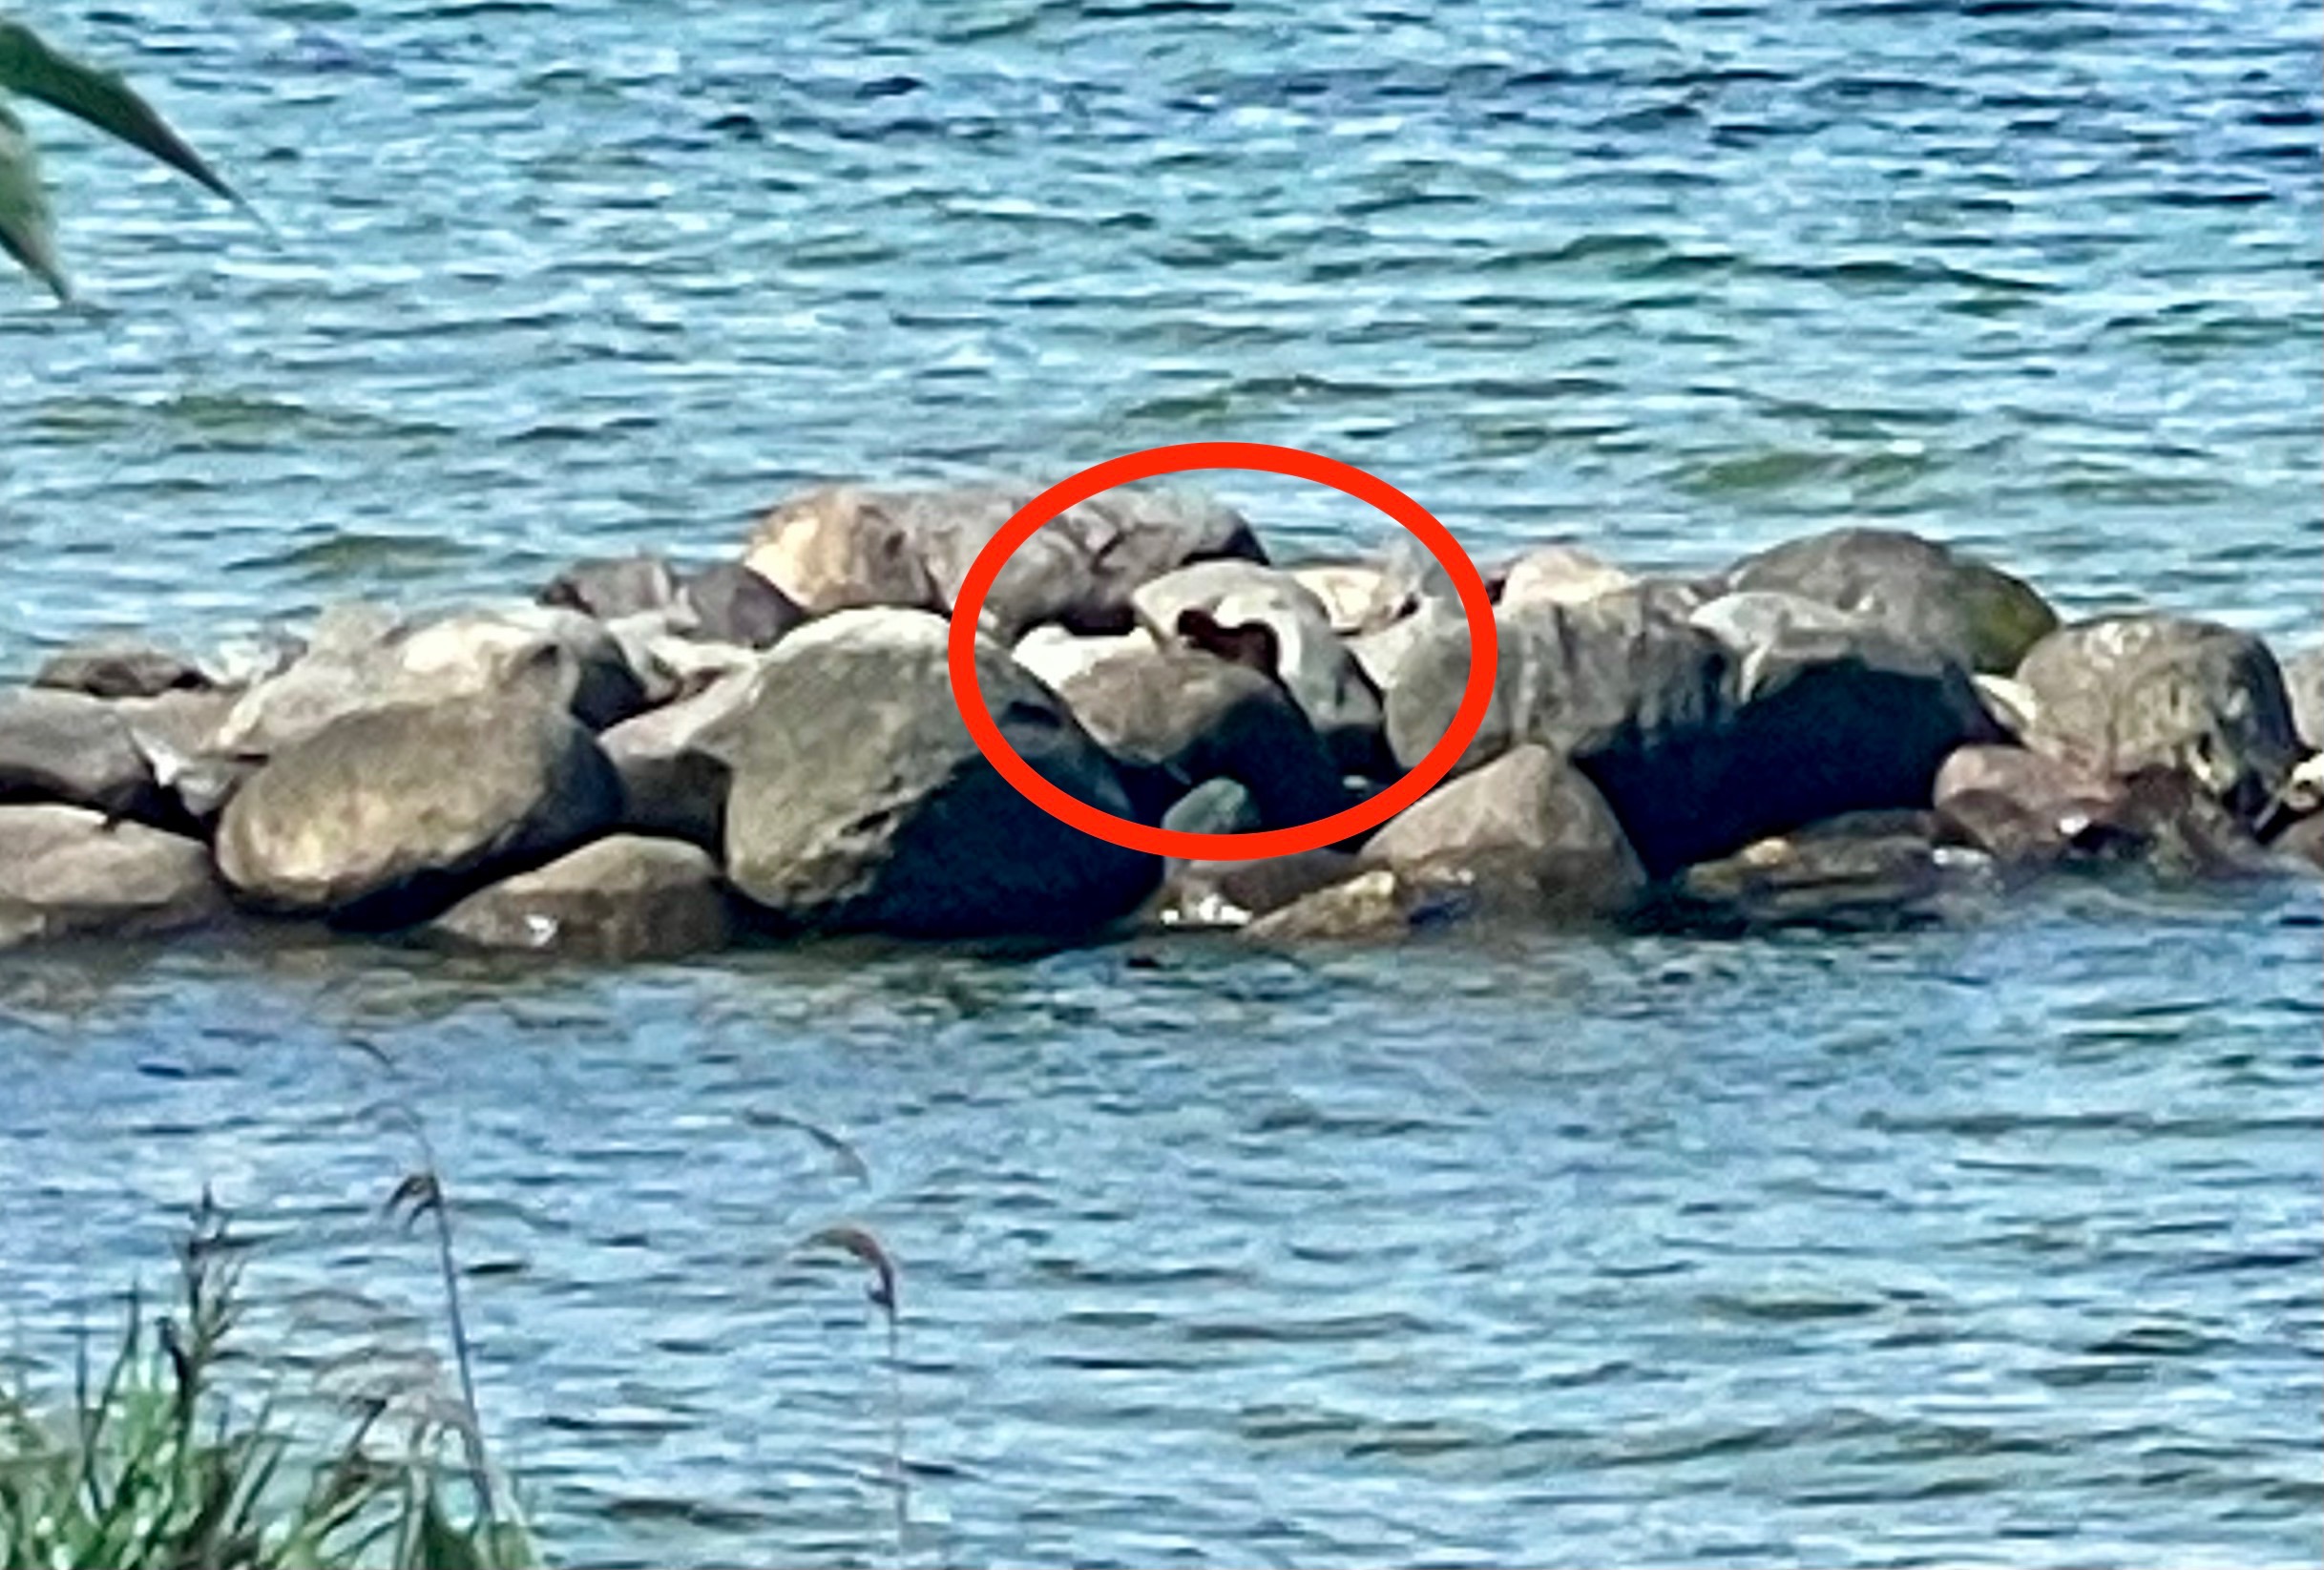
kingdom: Animalia
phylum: Chordata
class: Mammalia
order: Carnivora
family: Mustelidae
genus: Mustela
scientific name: Mustela vison
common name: Mink
